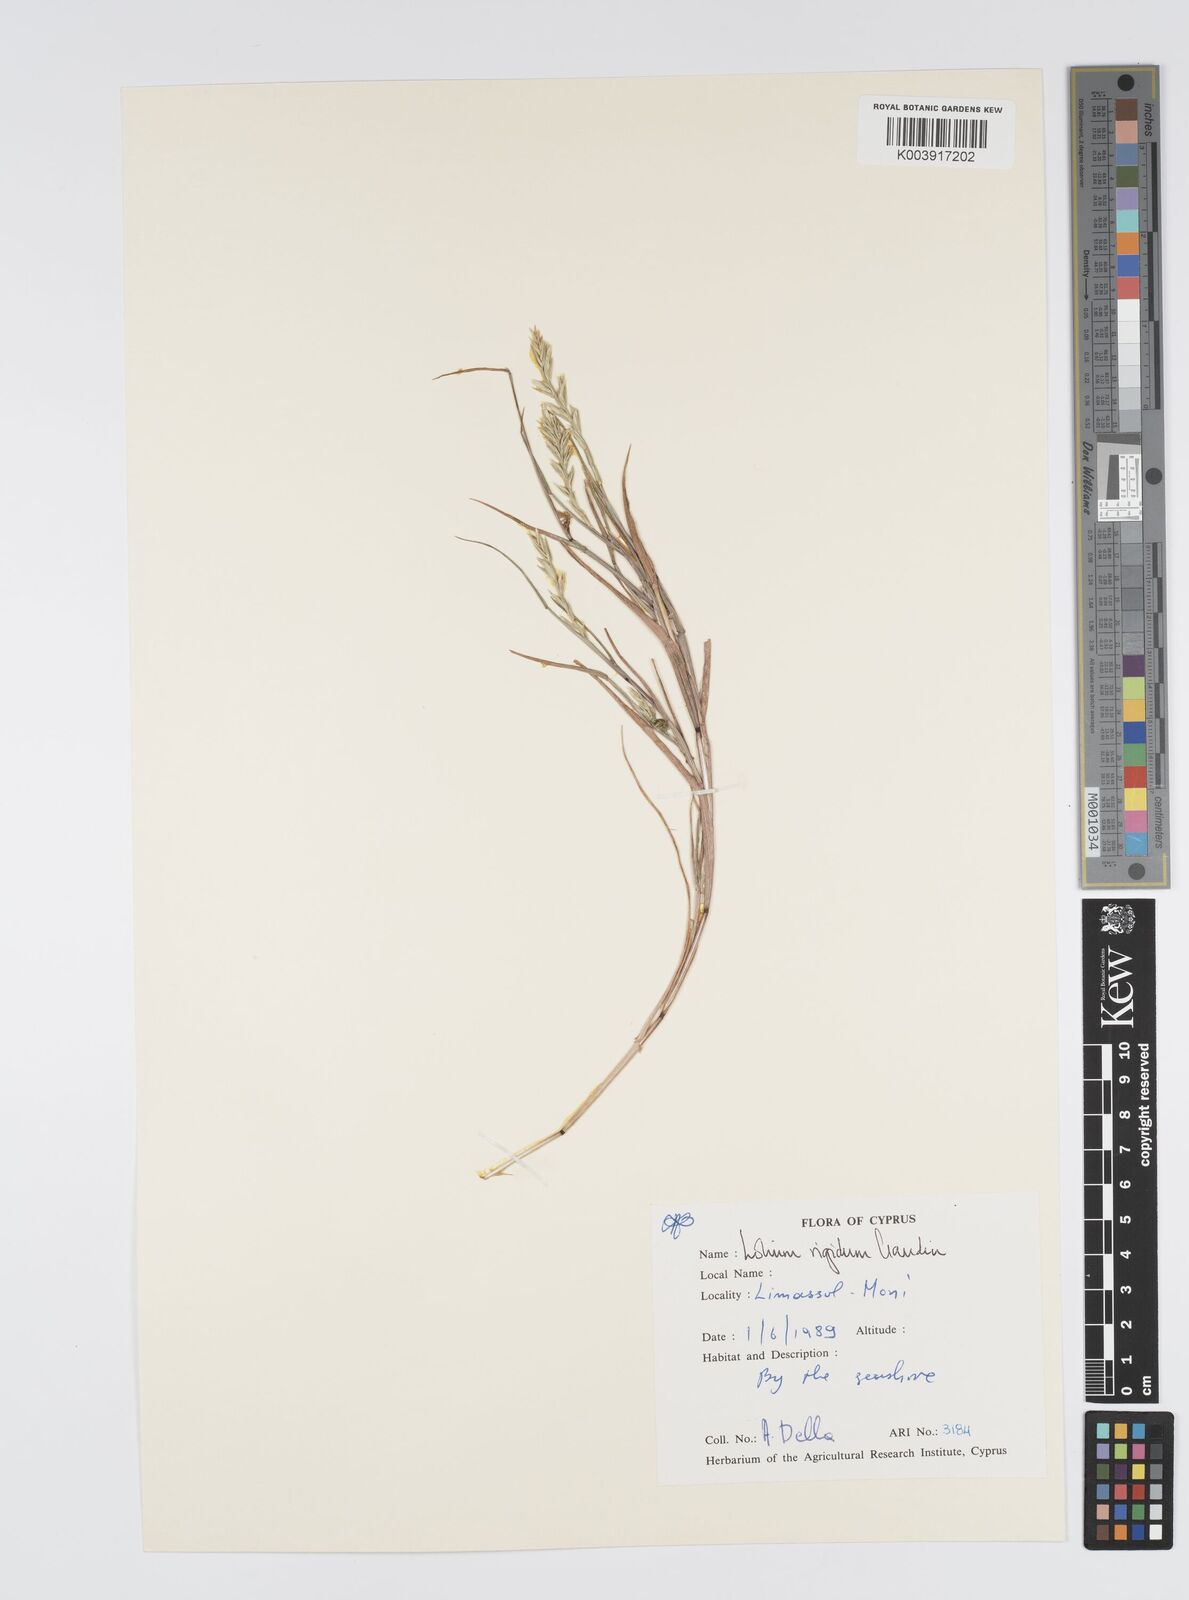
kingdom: Plantae
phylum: Tracheophyta
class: Liliopsida
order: Poales
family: Poaceae
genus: Lolium
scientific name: Lolium rigidum
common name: Wimmera ryegrass
